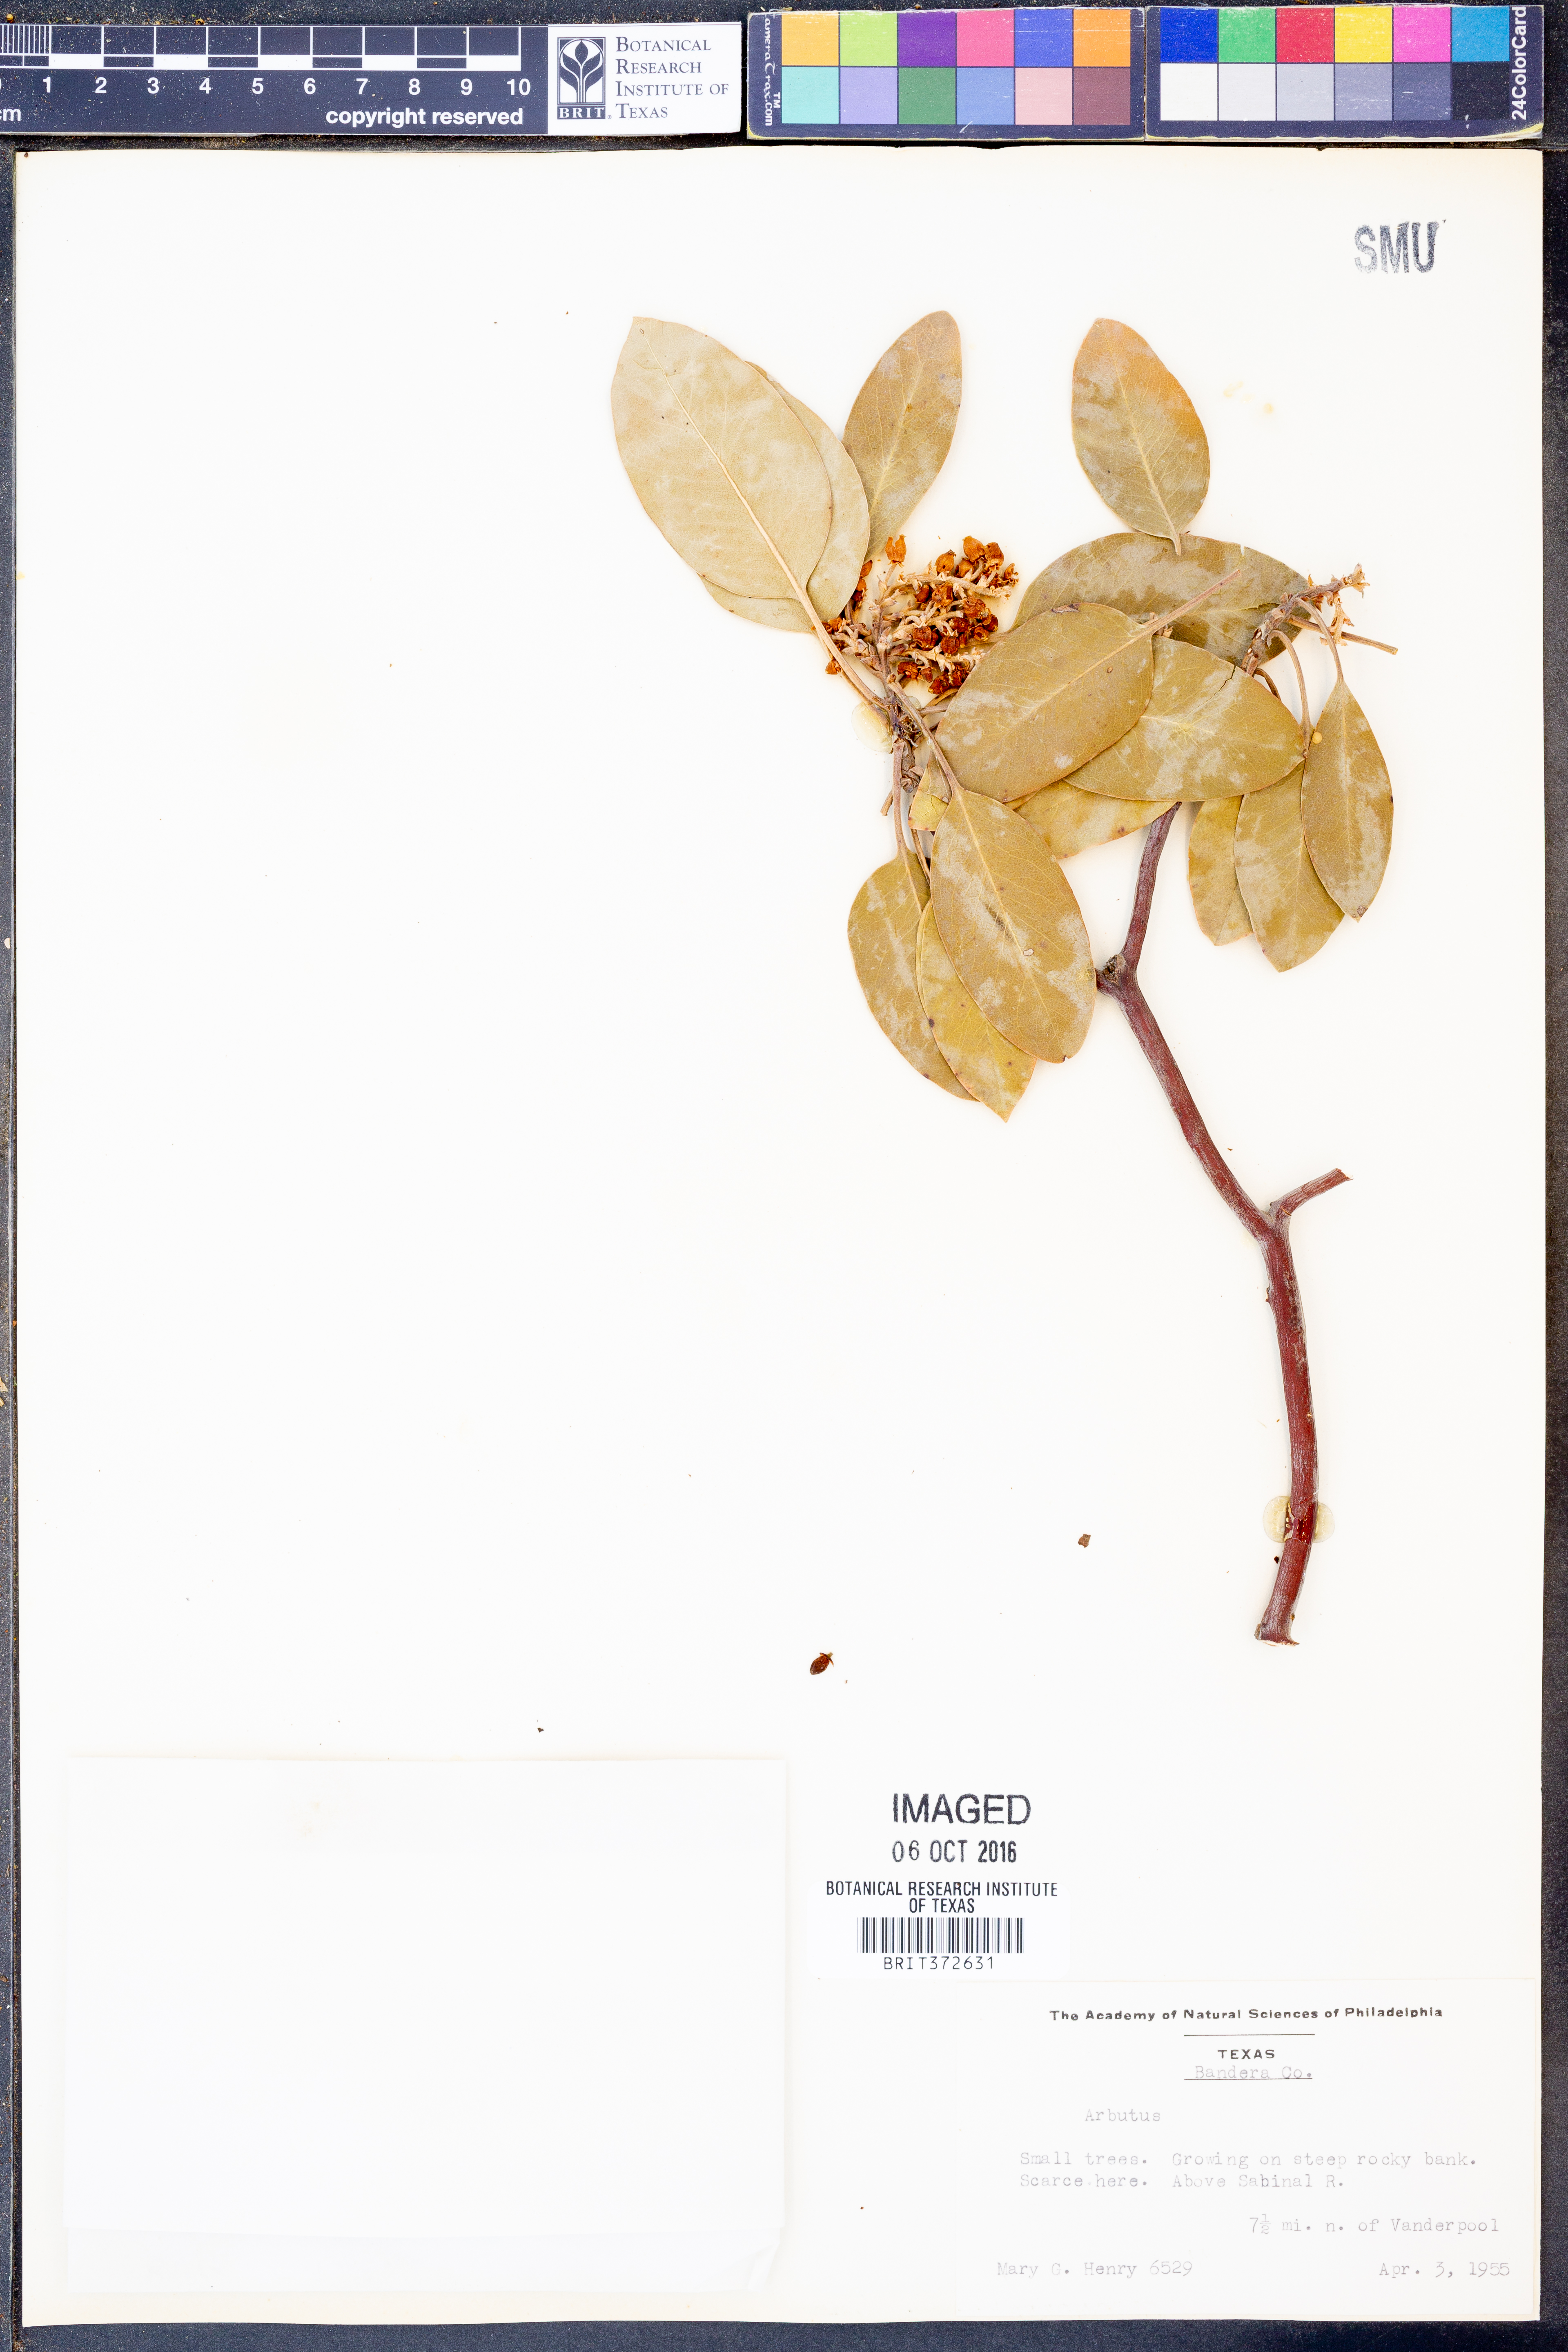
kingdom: Plantae
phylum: Tracheophyta
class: Magnoliopsida
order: Ericales
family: Ericaceae
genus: Arbutus
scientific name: Arbutus
